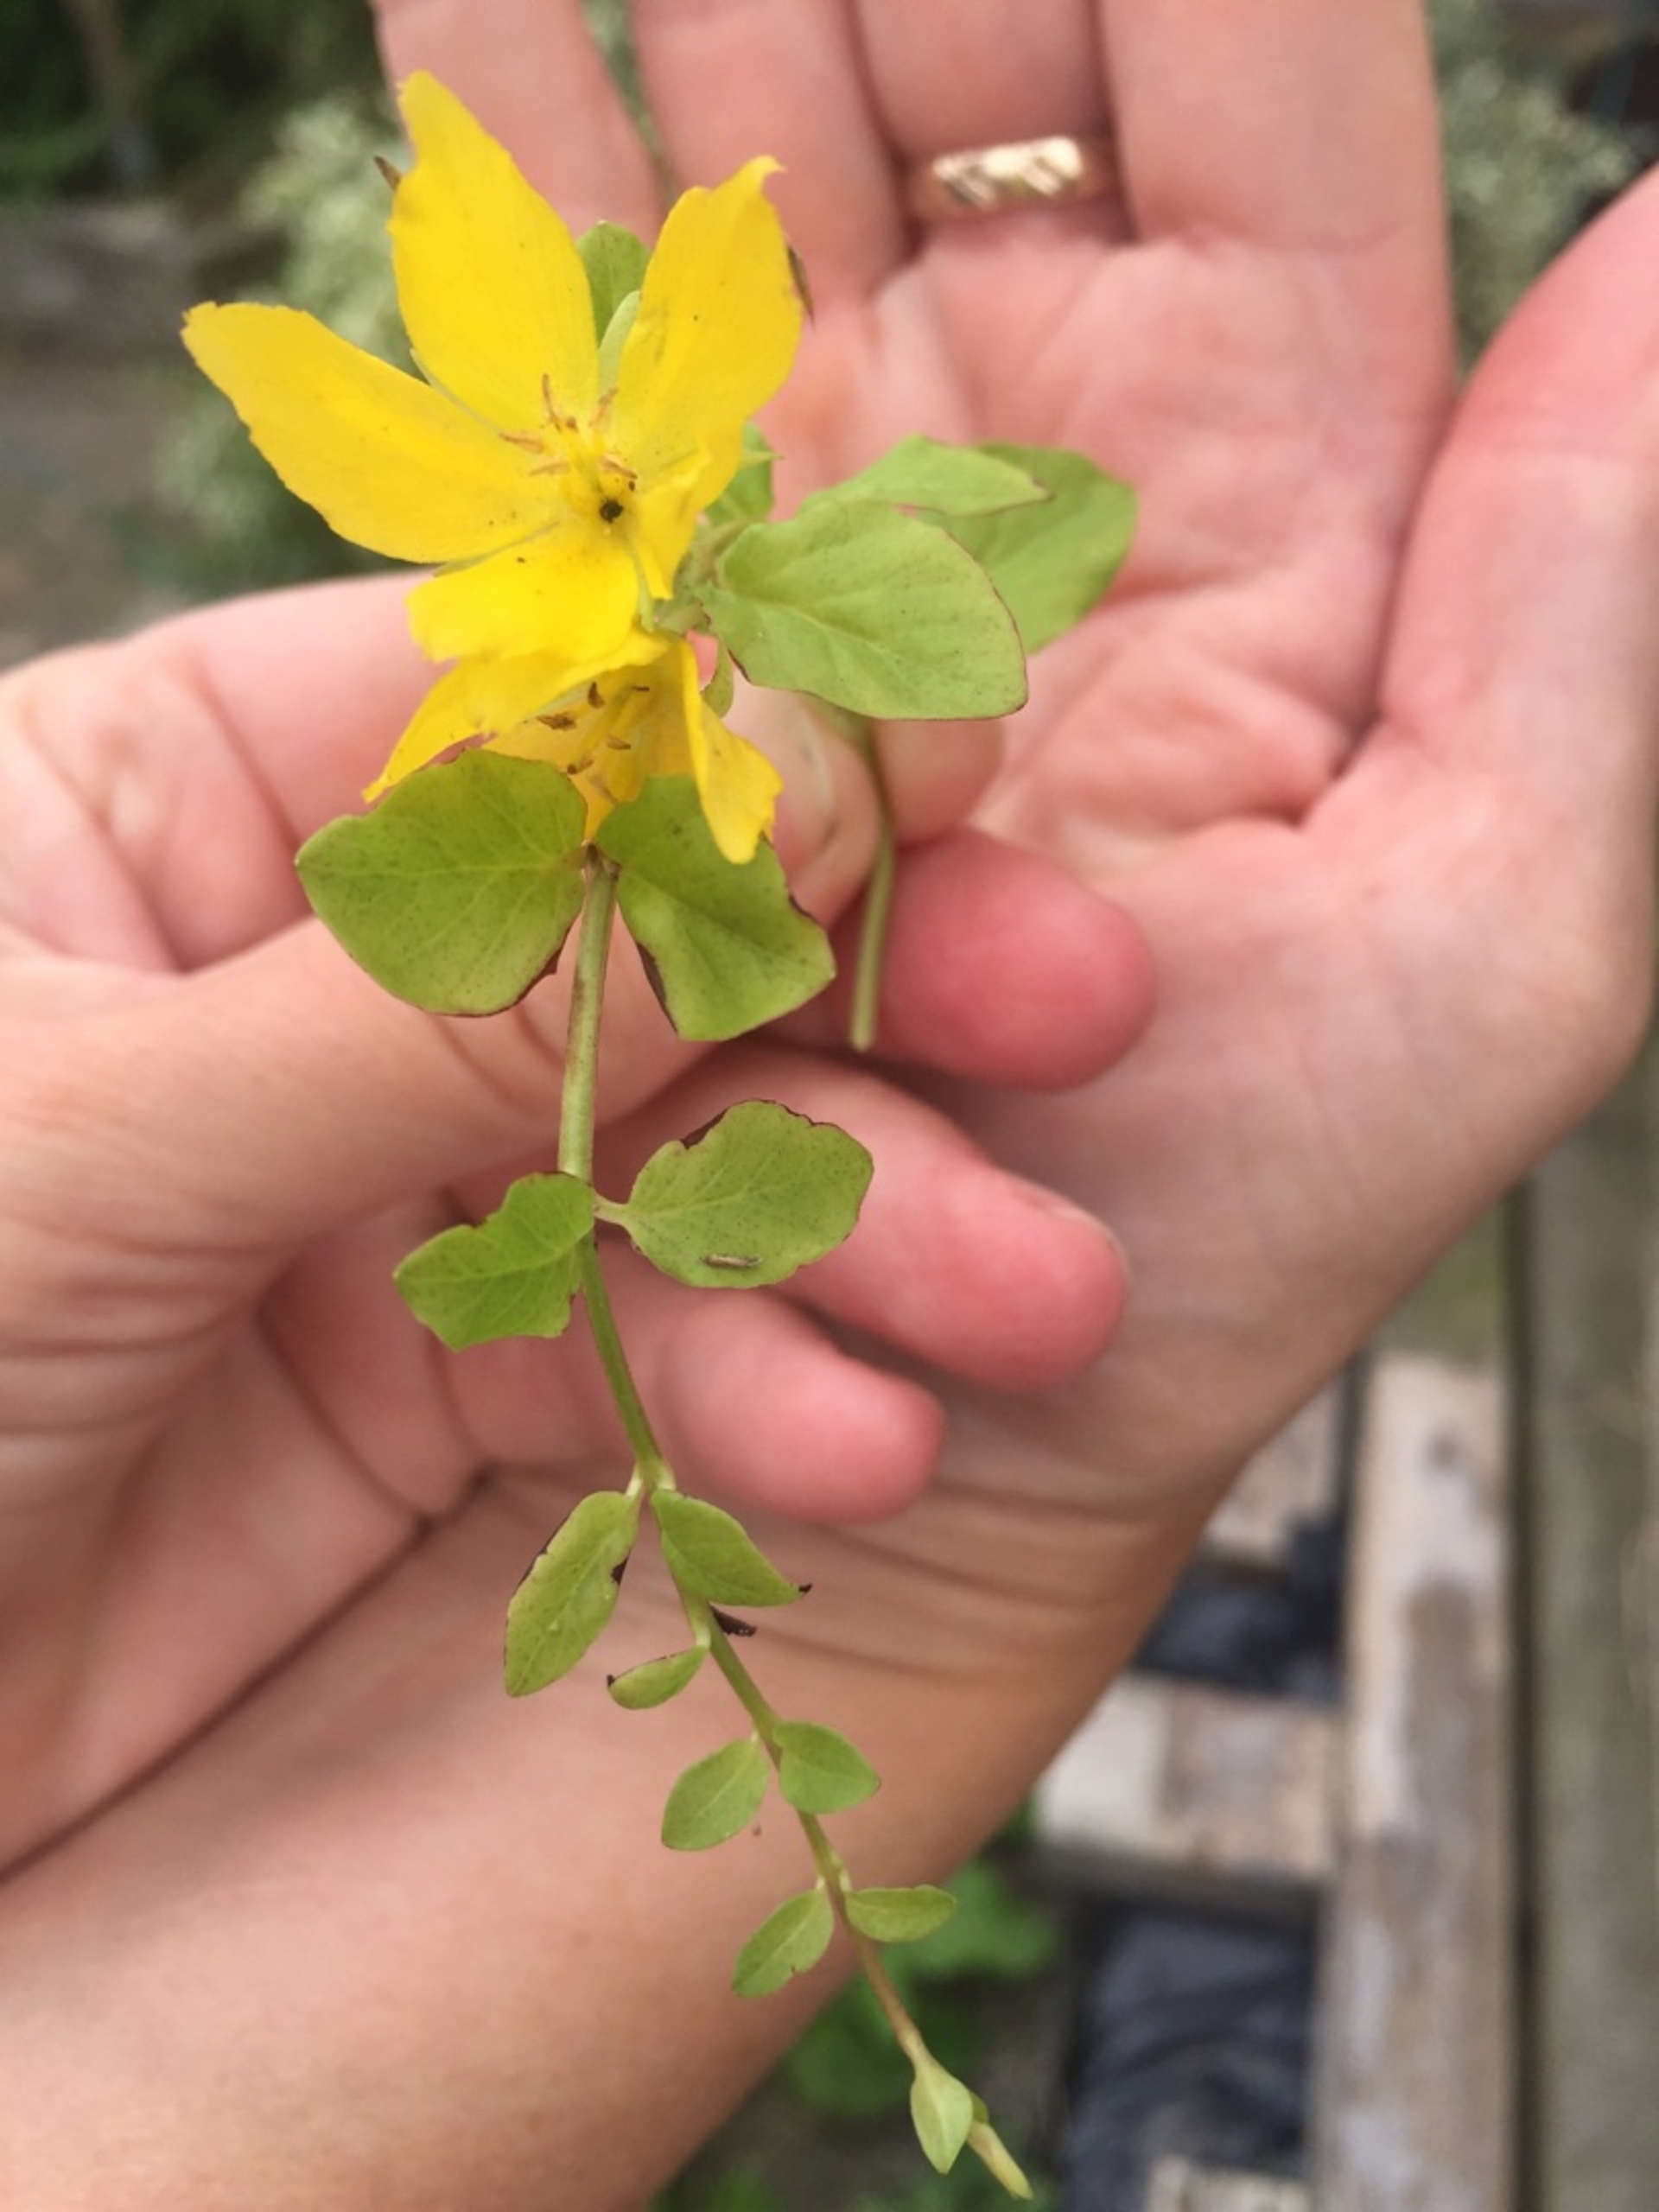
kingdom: Plantae
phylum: Tracheophyta
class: Magnoliopsida
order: Ericales
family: Primulaceae
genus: Lysimachia
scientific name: Lysimachia nummularia
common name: Pengebladet fredløs
